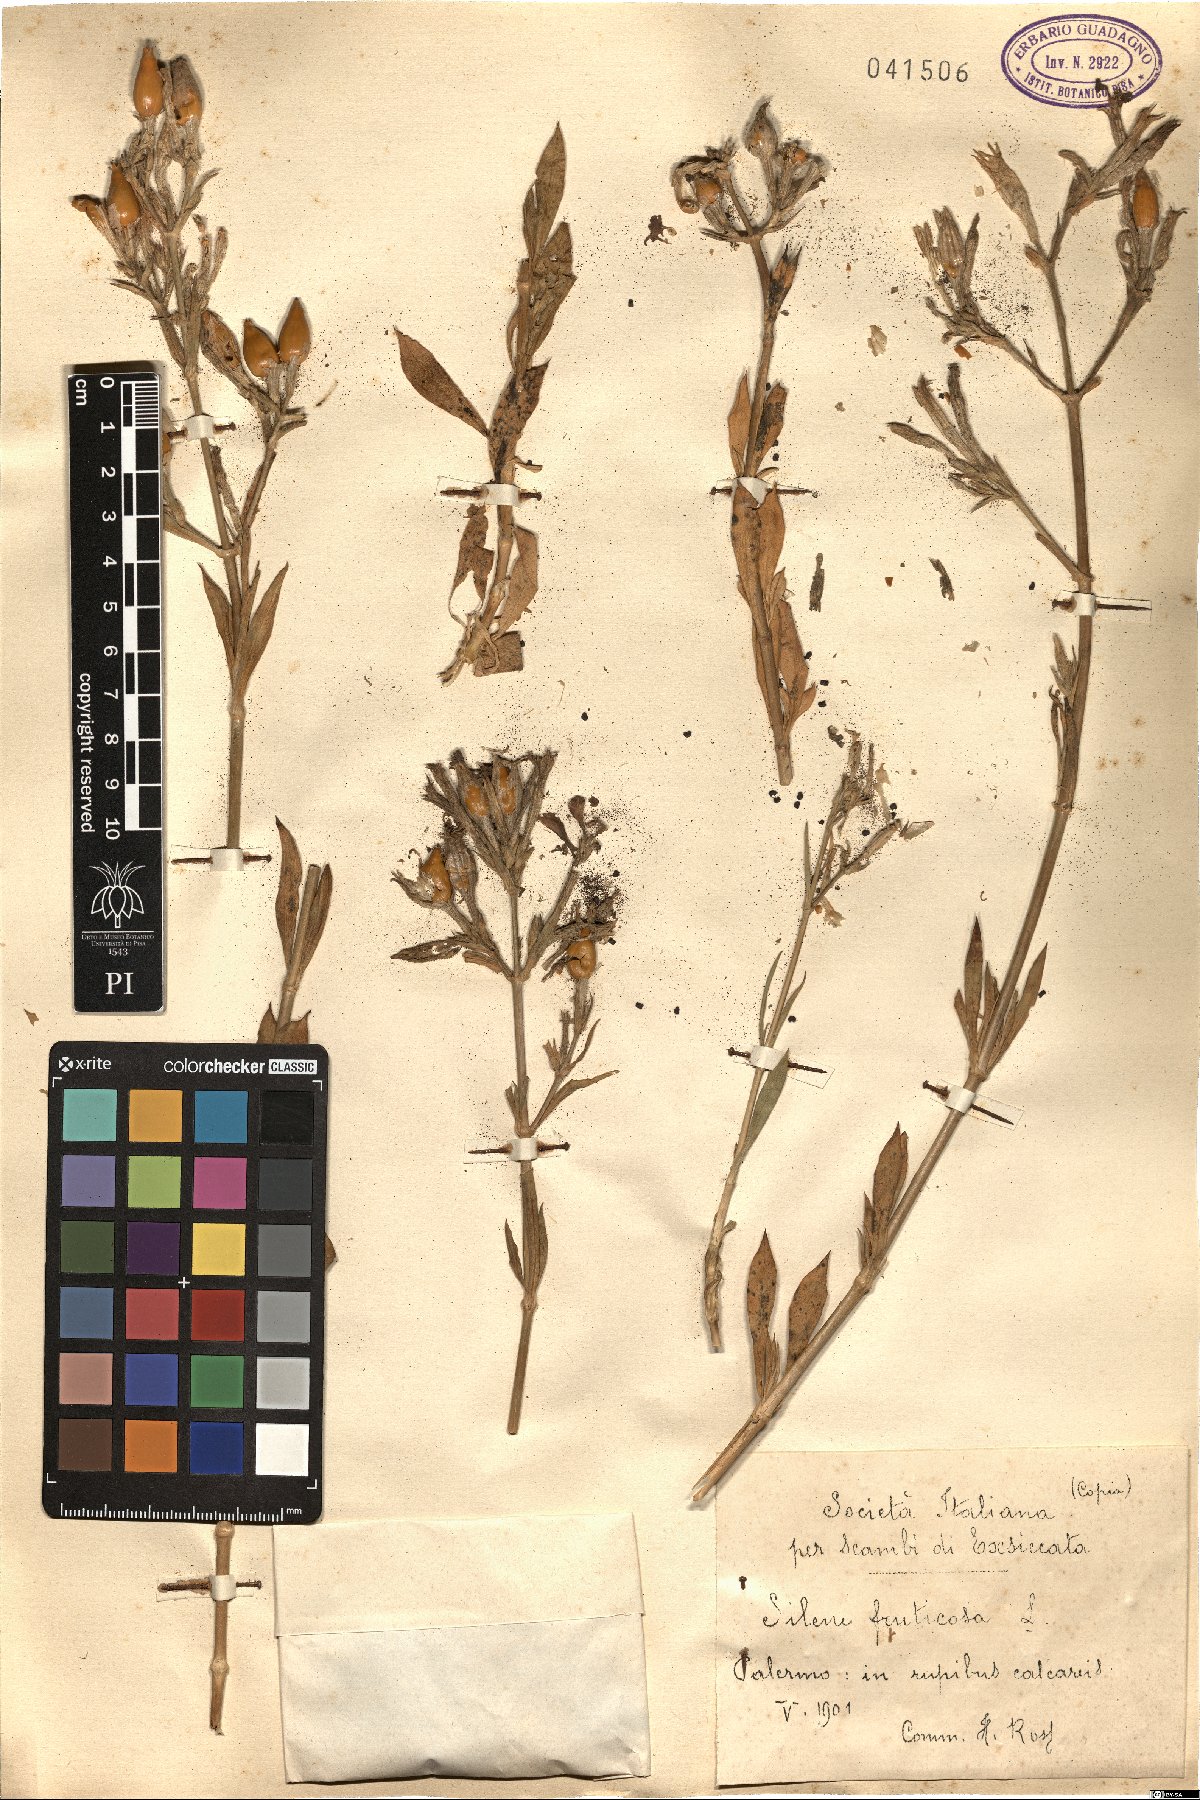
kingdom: Plantae
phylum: Tracheophyta
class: Magnoliopsida
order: Caryophyllales
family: Caryophyllaceae
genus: Silene
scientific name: Silene fruticosa
